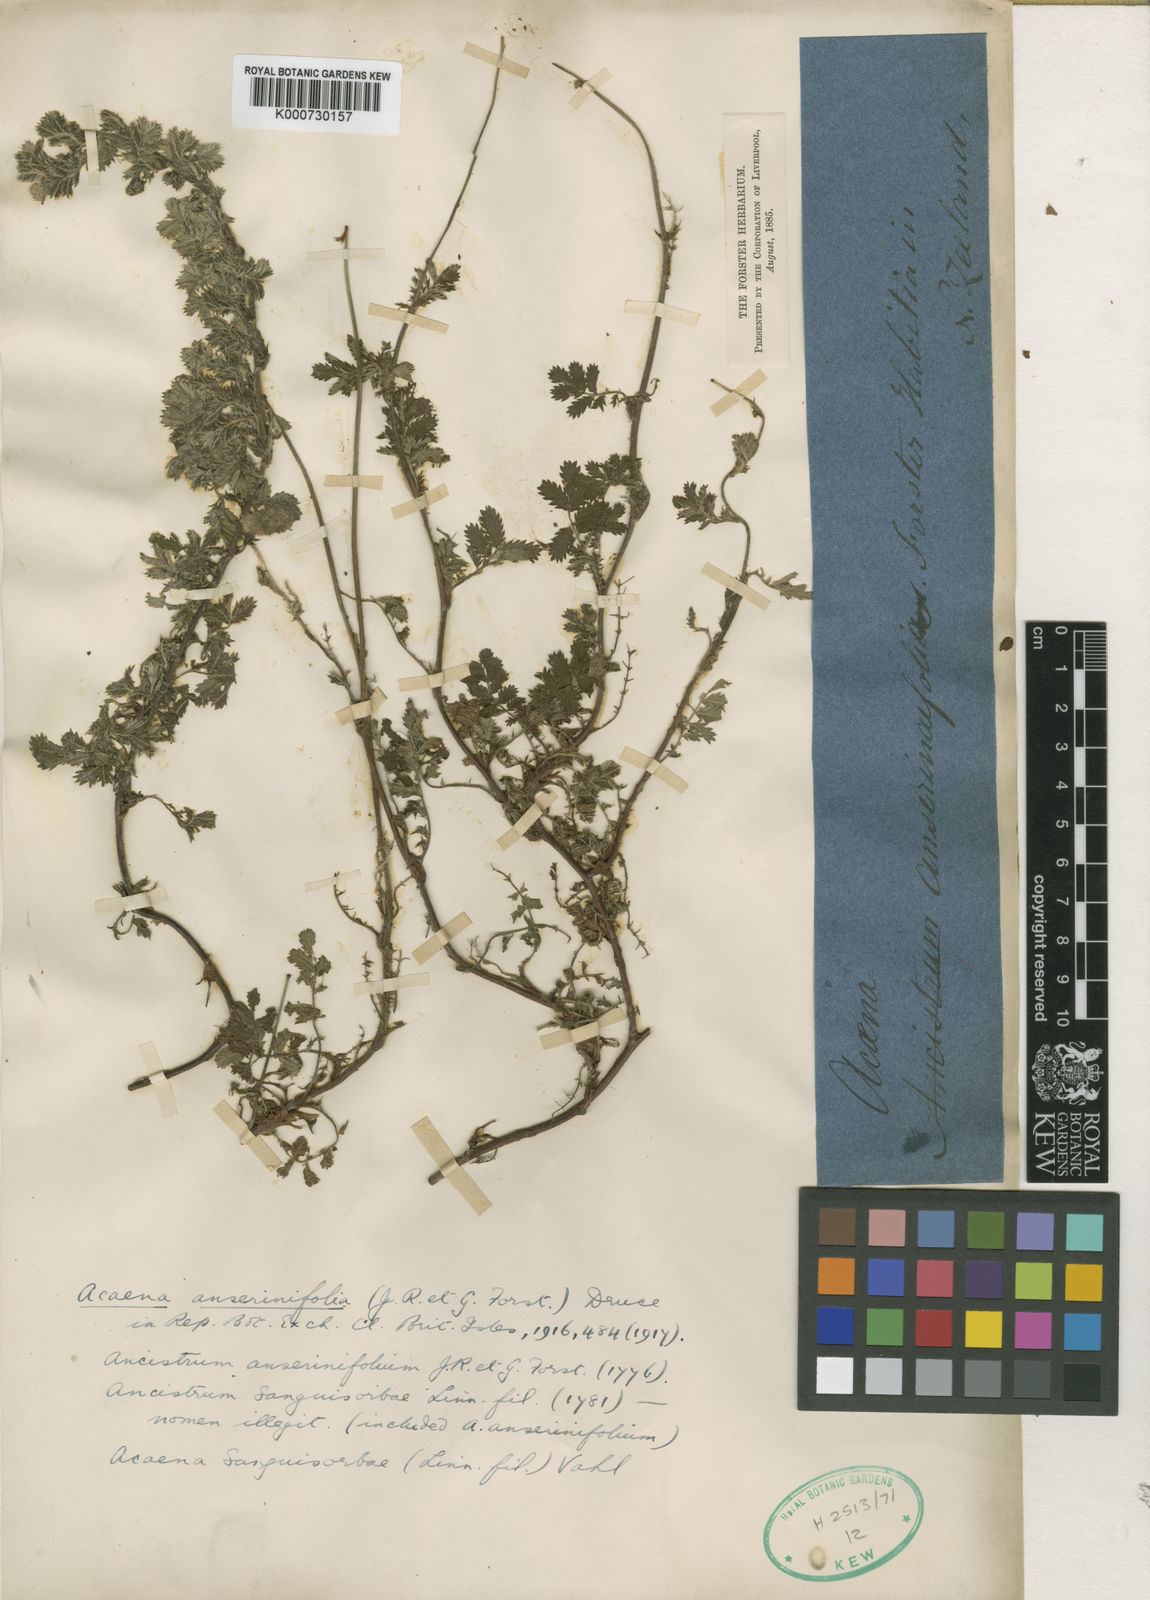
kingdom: Plantae
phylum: Tracheophyta
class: Magnoliopsida
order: Rosales
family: Rosaceae
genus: Acaena
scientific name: Acaena
